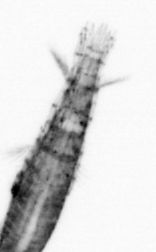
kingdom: Animalia
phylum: Arthropoda
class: Copepoda
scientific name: Copepoda
